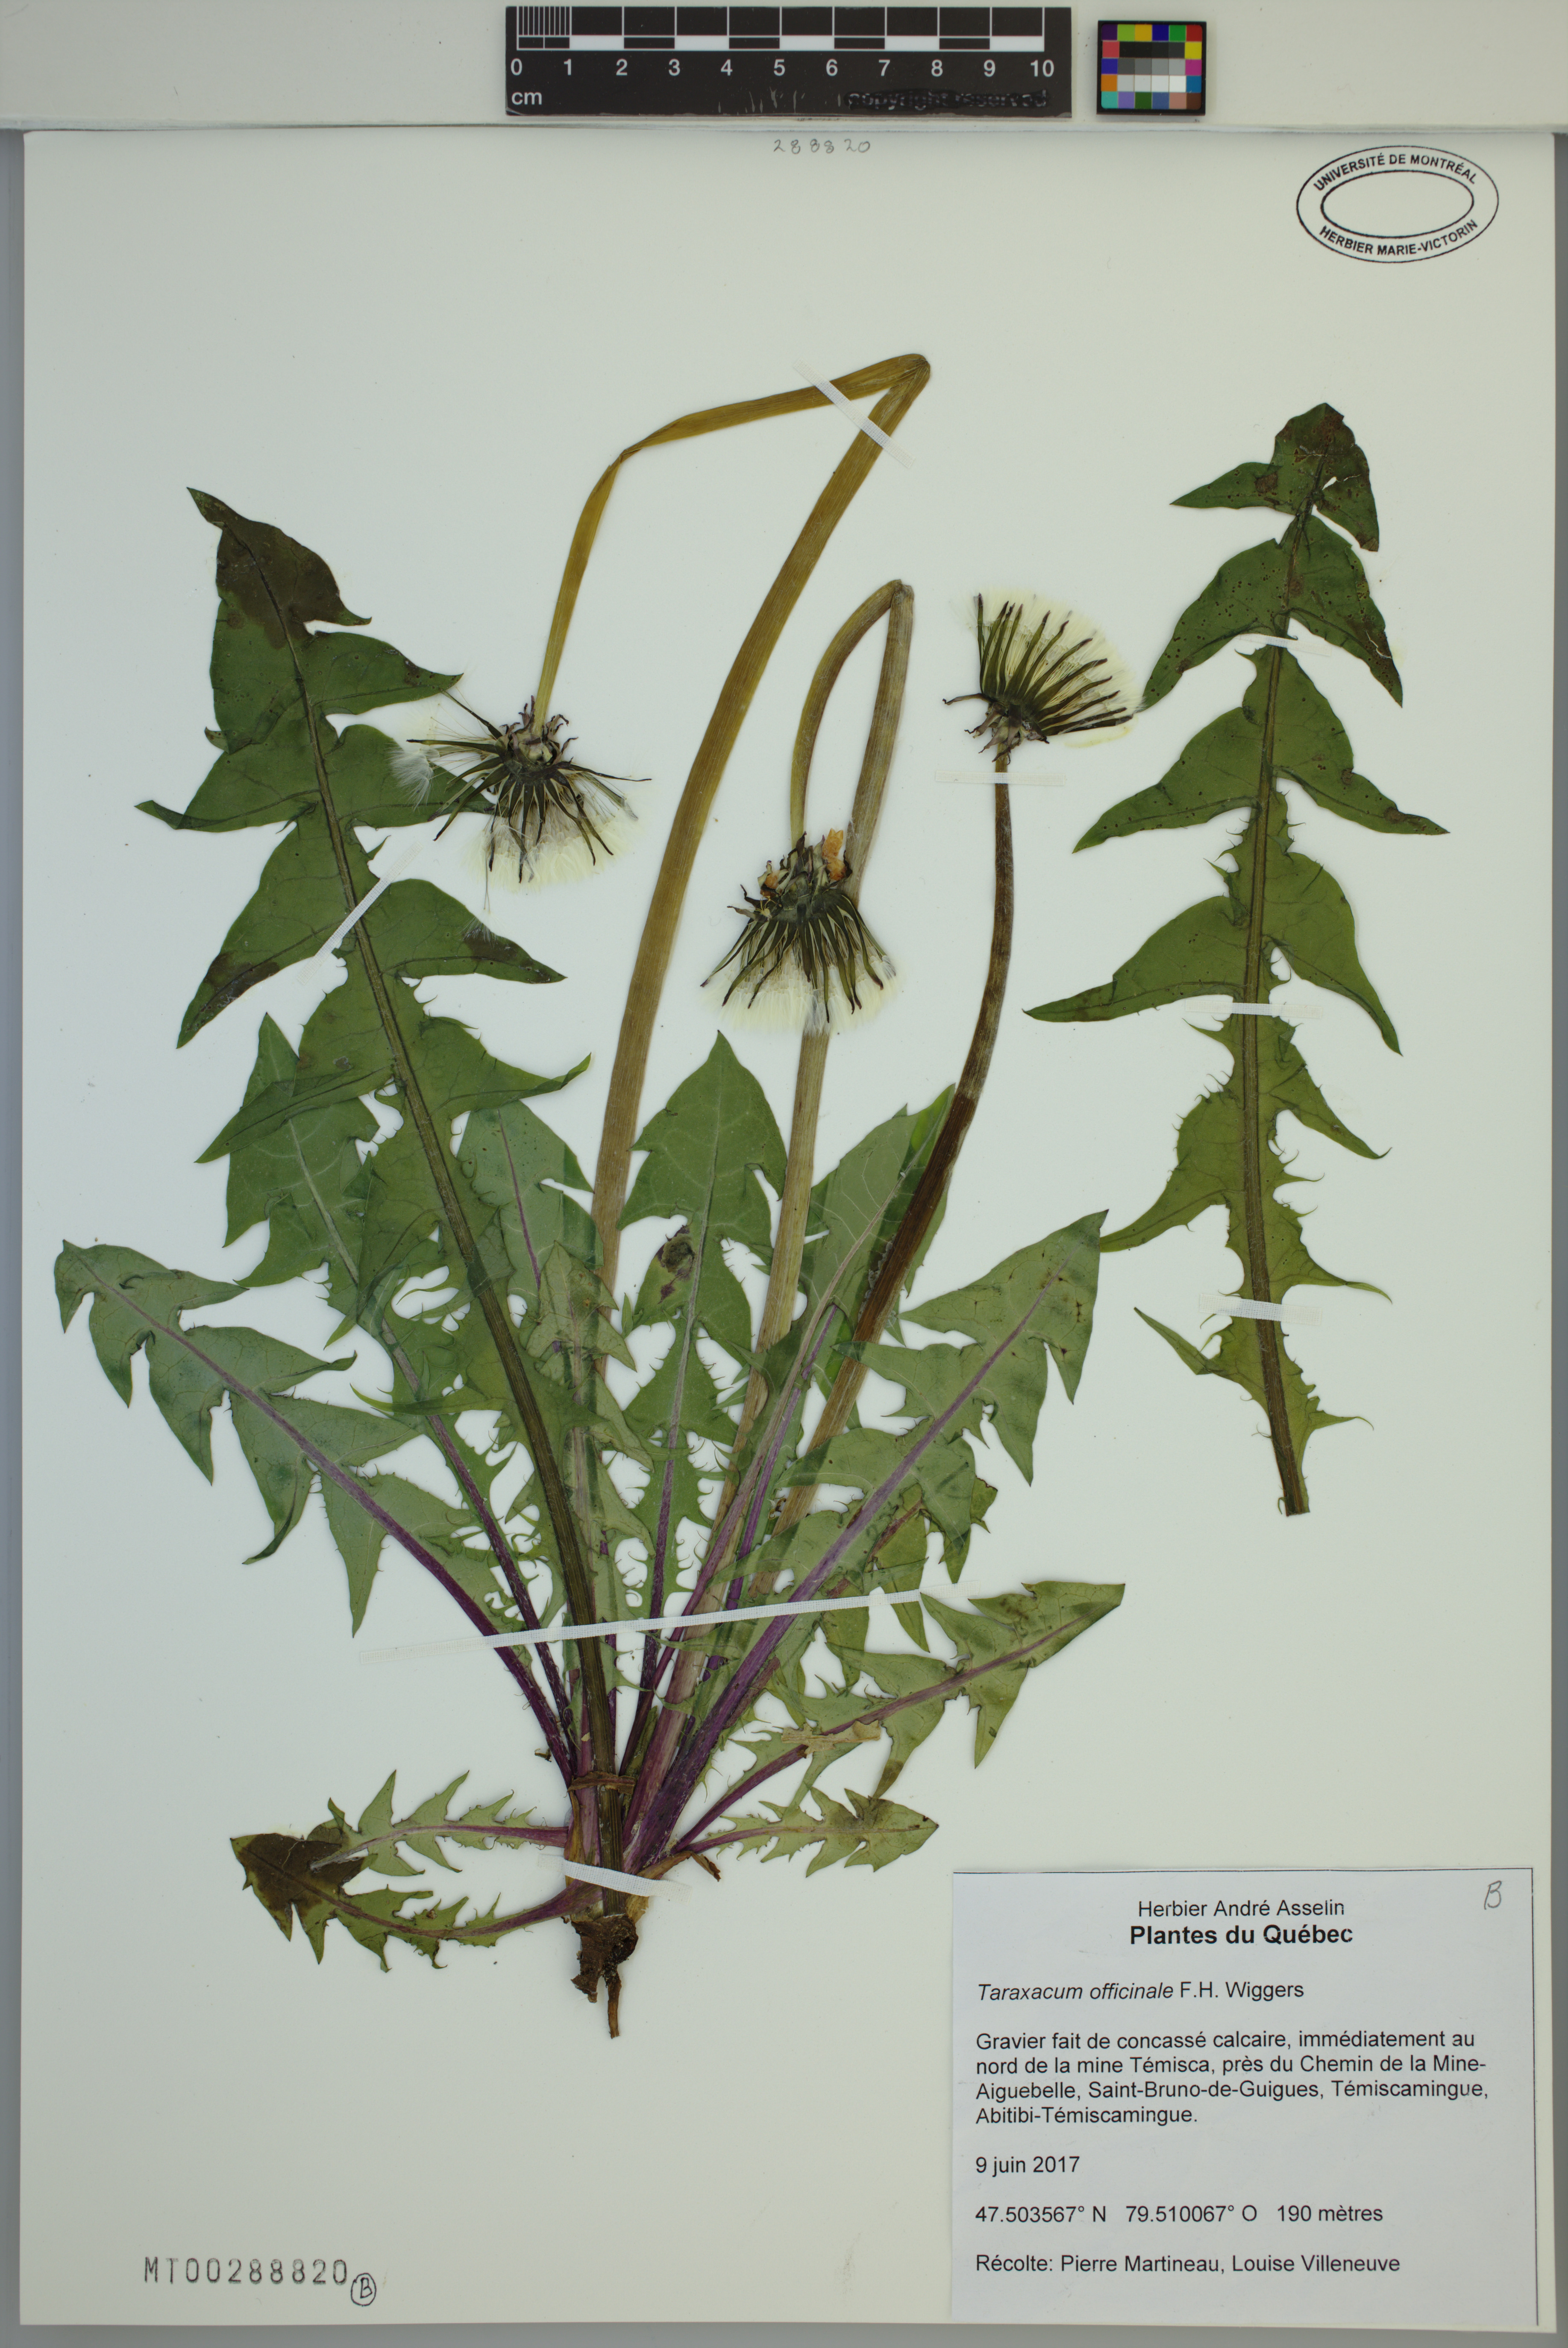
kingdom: Plantae
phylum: Tracheophyta
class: Magnoliopsida
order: Asterales
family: Asteraceae
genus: Taraxacum
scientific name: Taraxacum officinale
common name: Common dandelion
